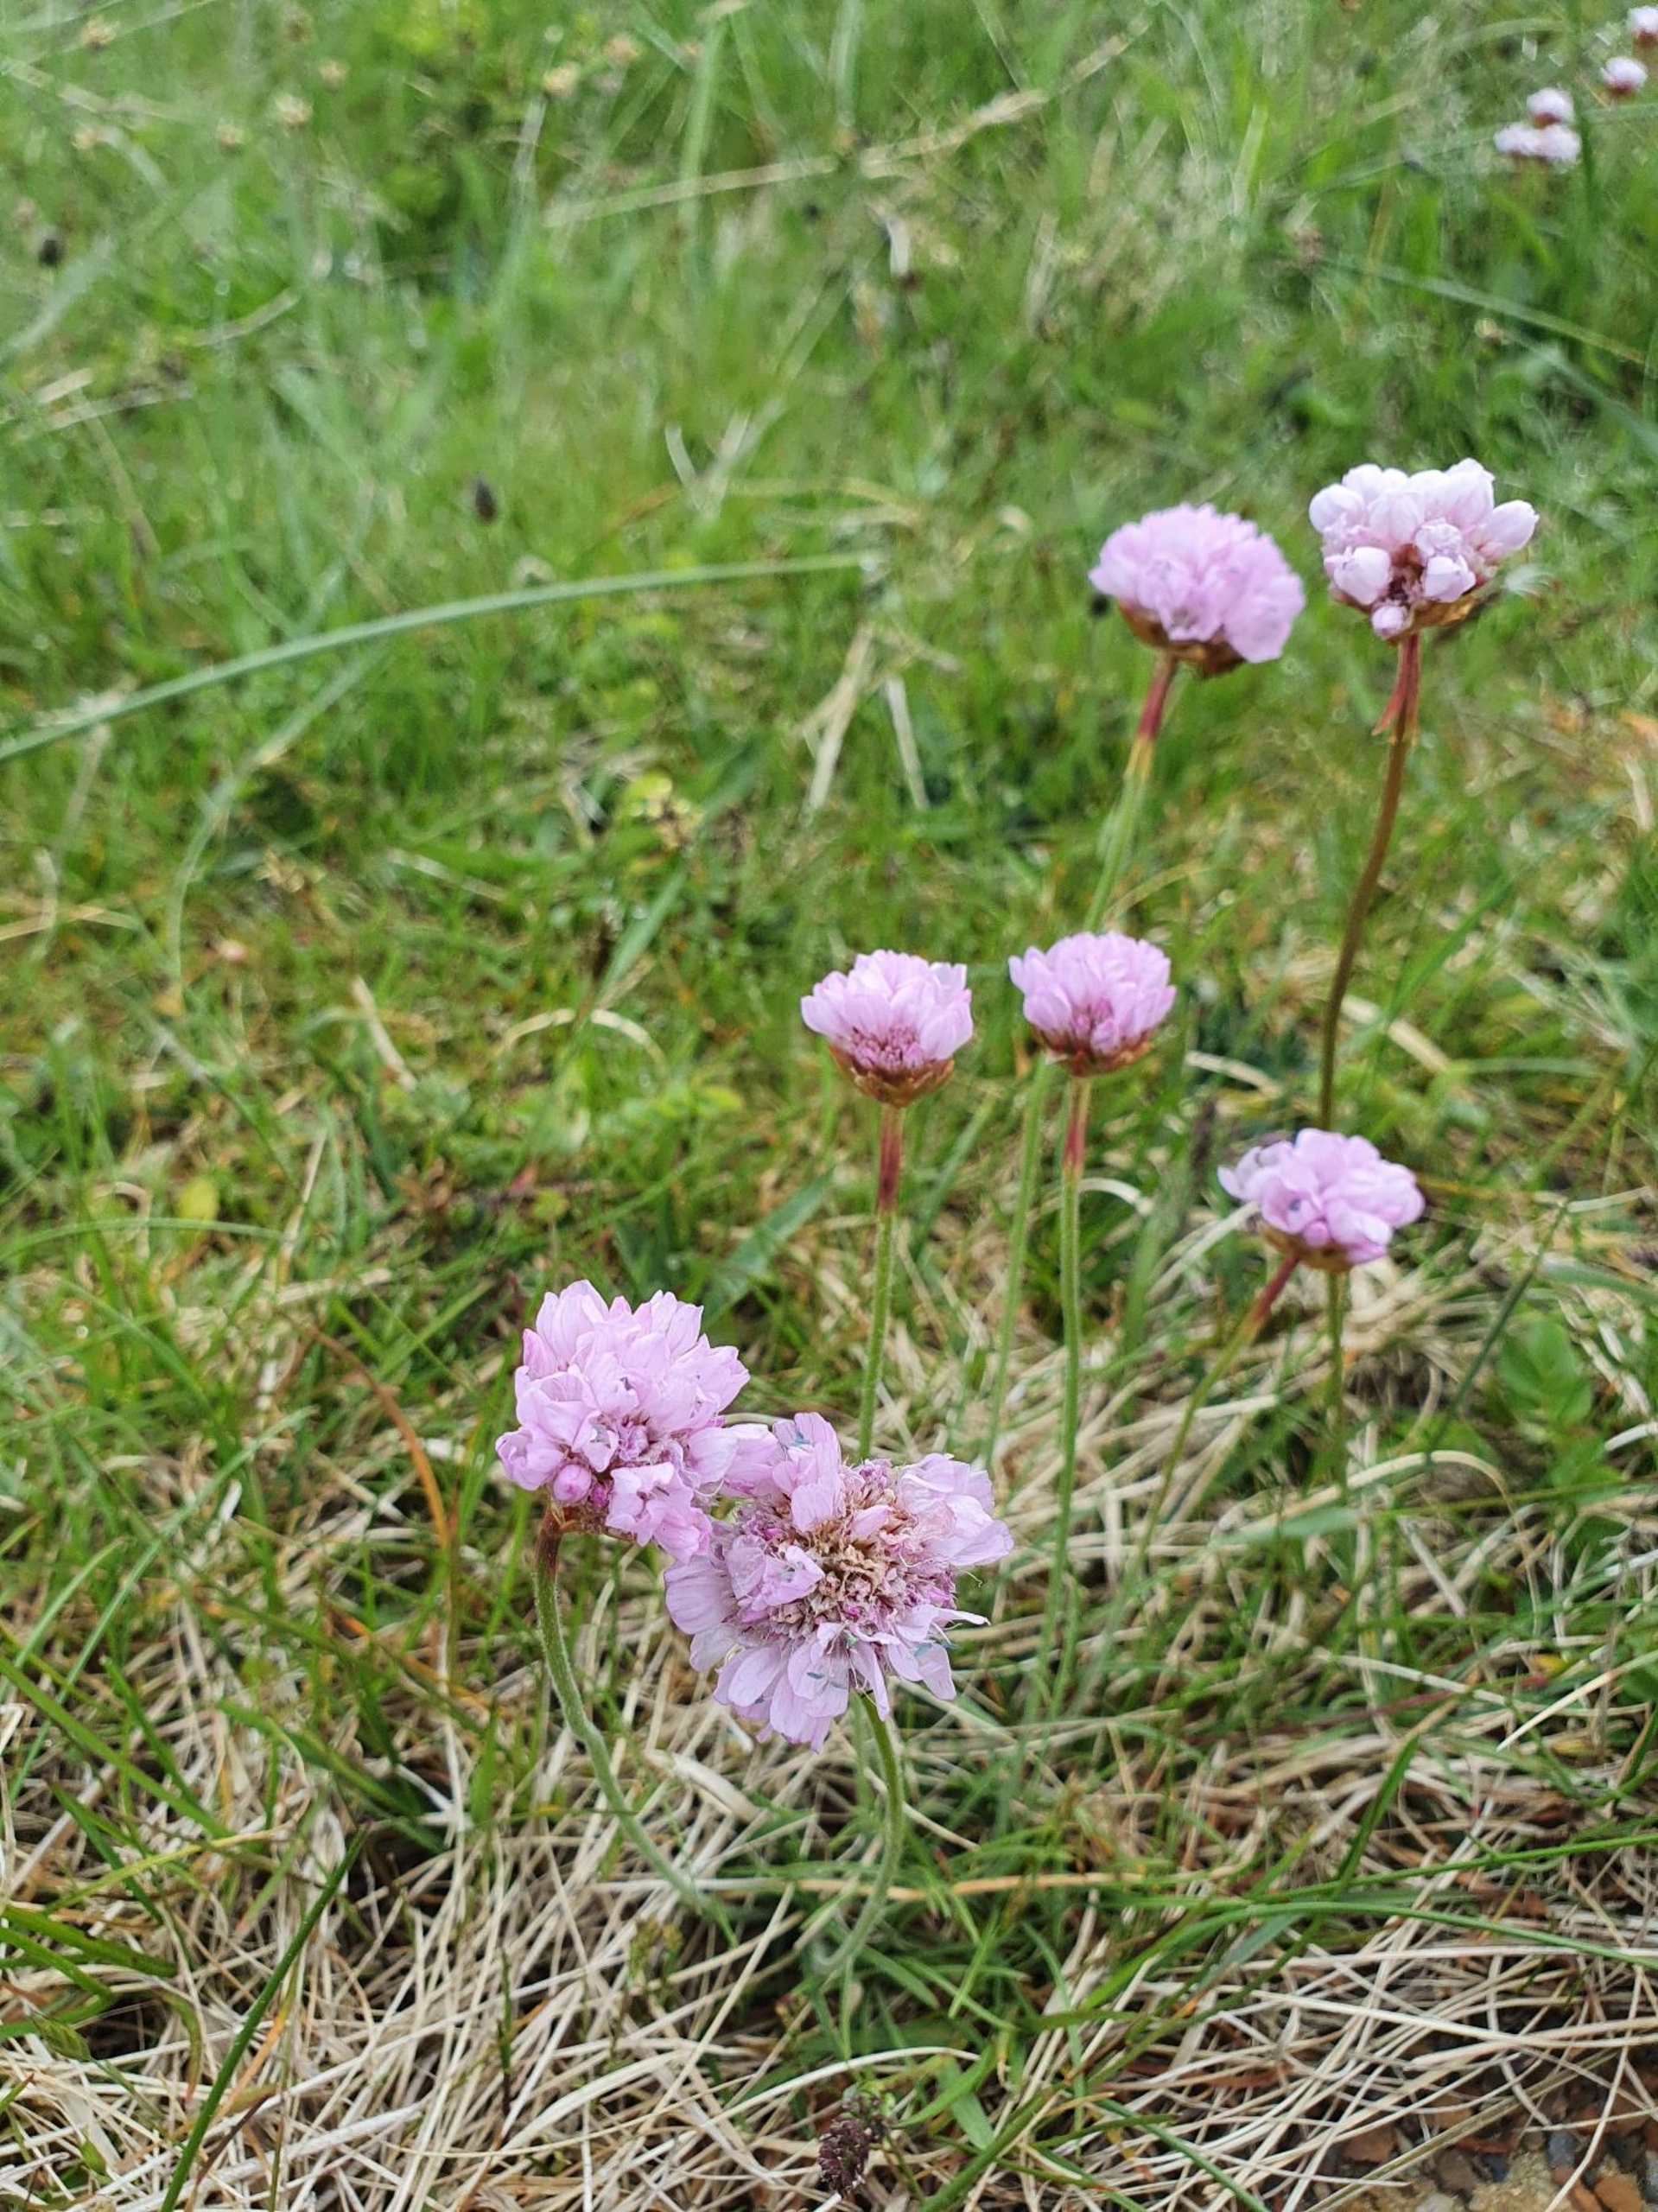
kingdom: Plantae
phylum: Tracheophyta
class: Magnoliopsida
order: Caryophyllales
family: Plumbaginaceae
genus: Armeria
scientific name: Armeria maritima
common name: Engelskgræs
